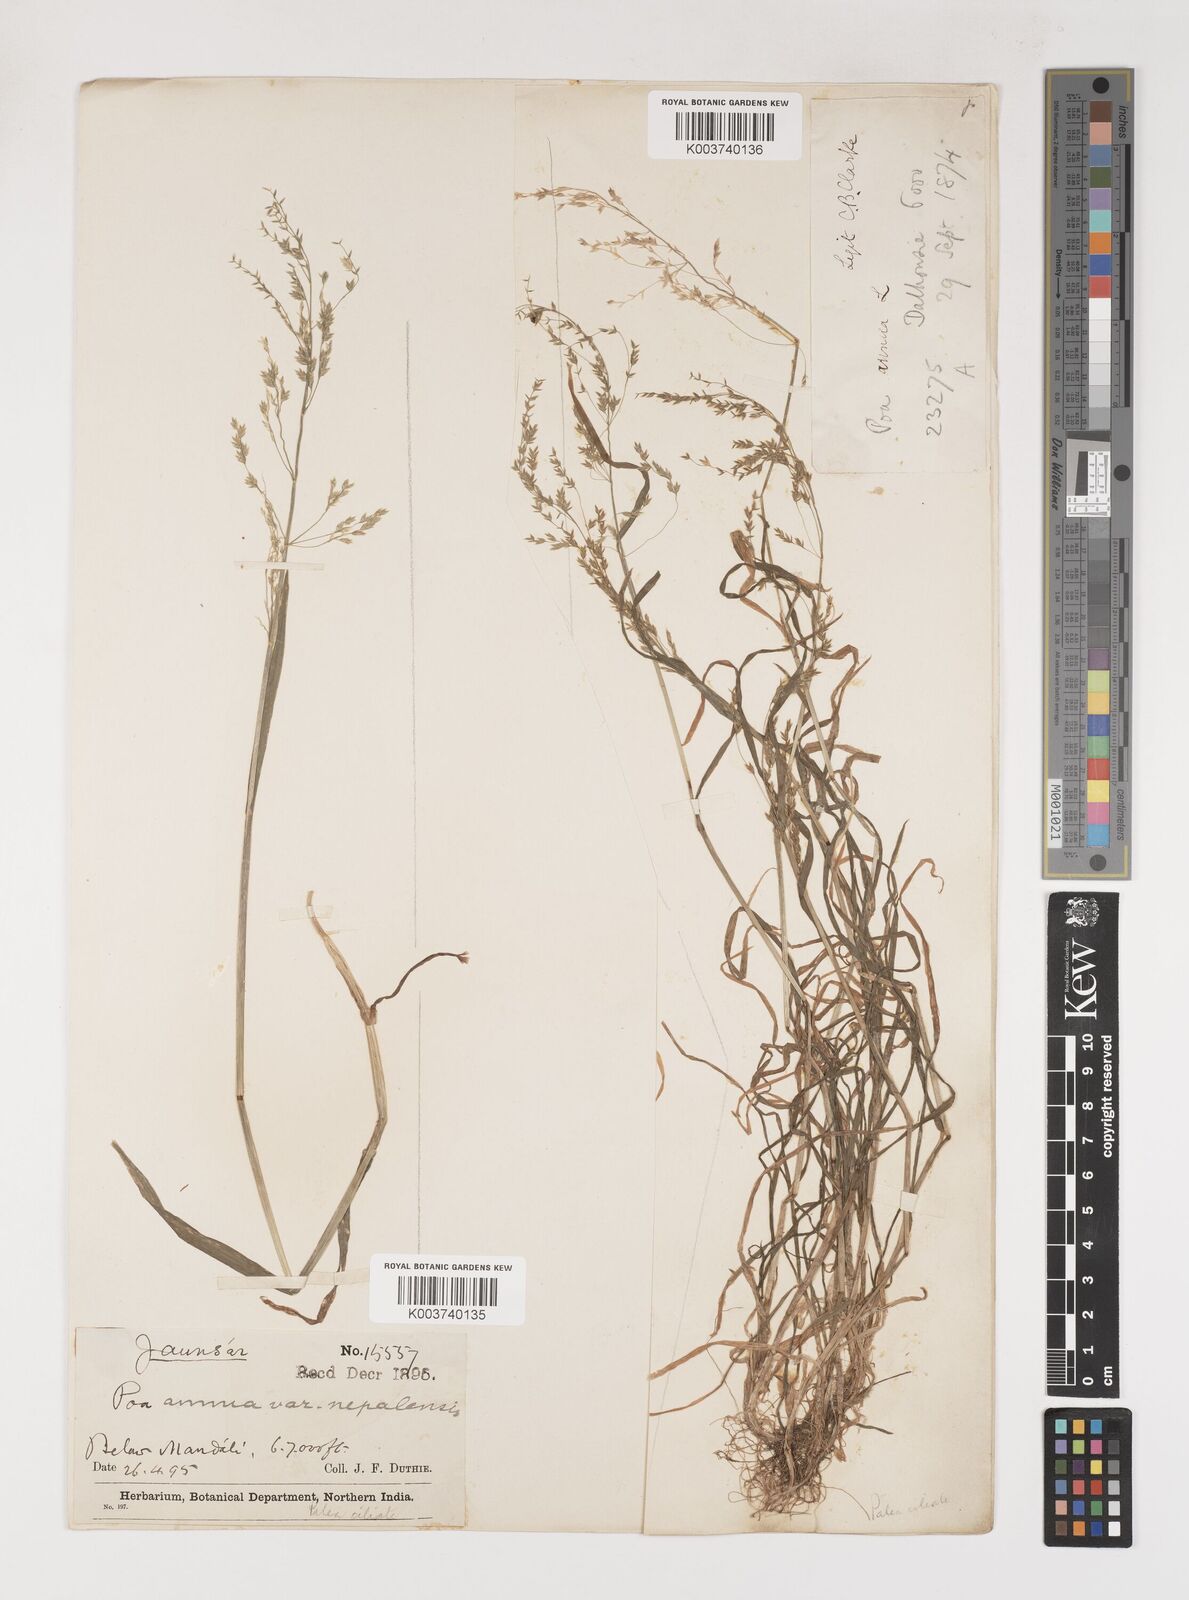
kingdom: Plantae
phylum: Tracheophyta
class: Liliopsida
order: Poales
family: Poaceae
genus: Poa
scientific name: Poa nepalensis
